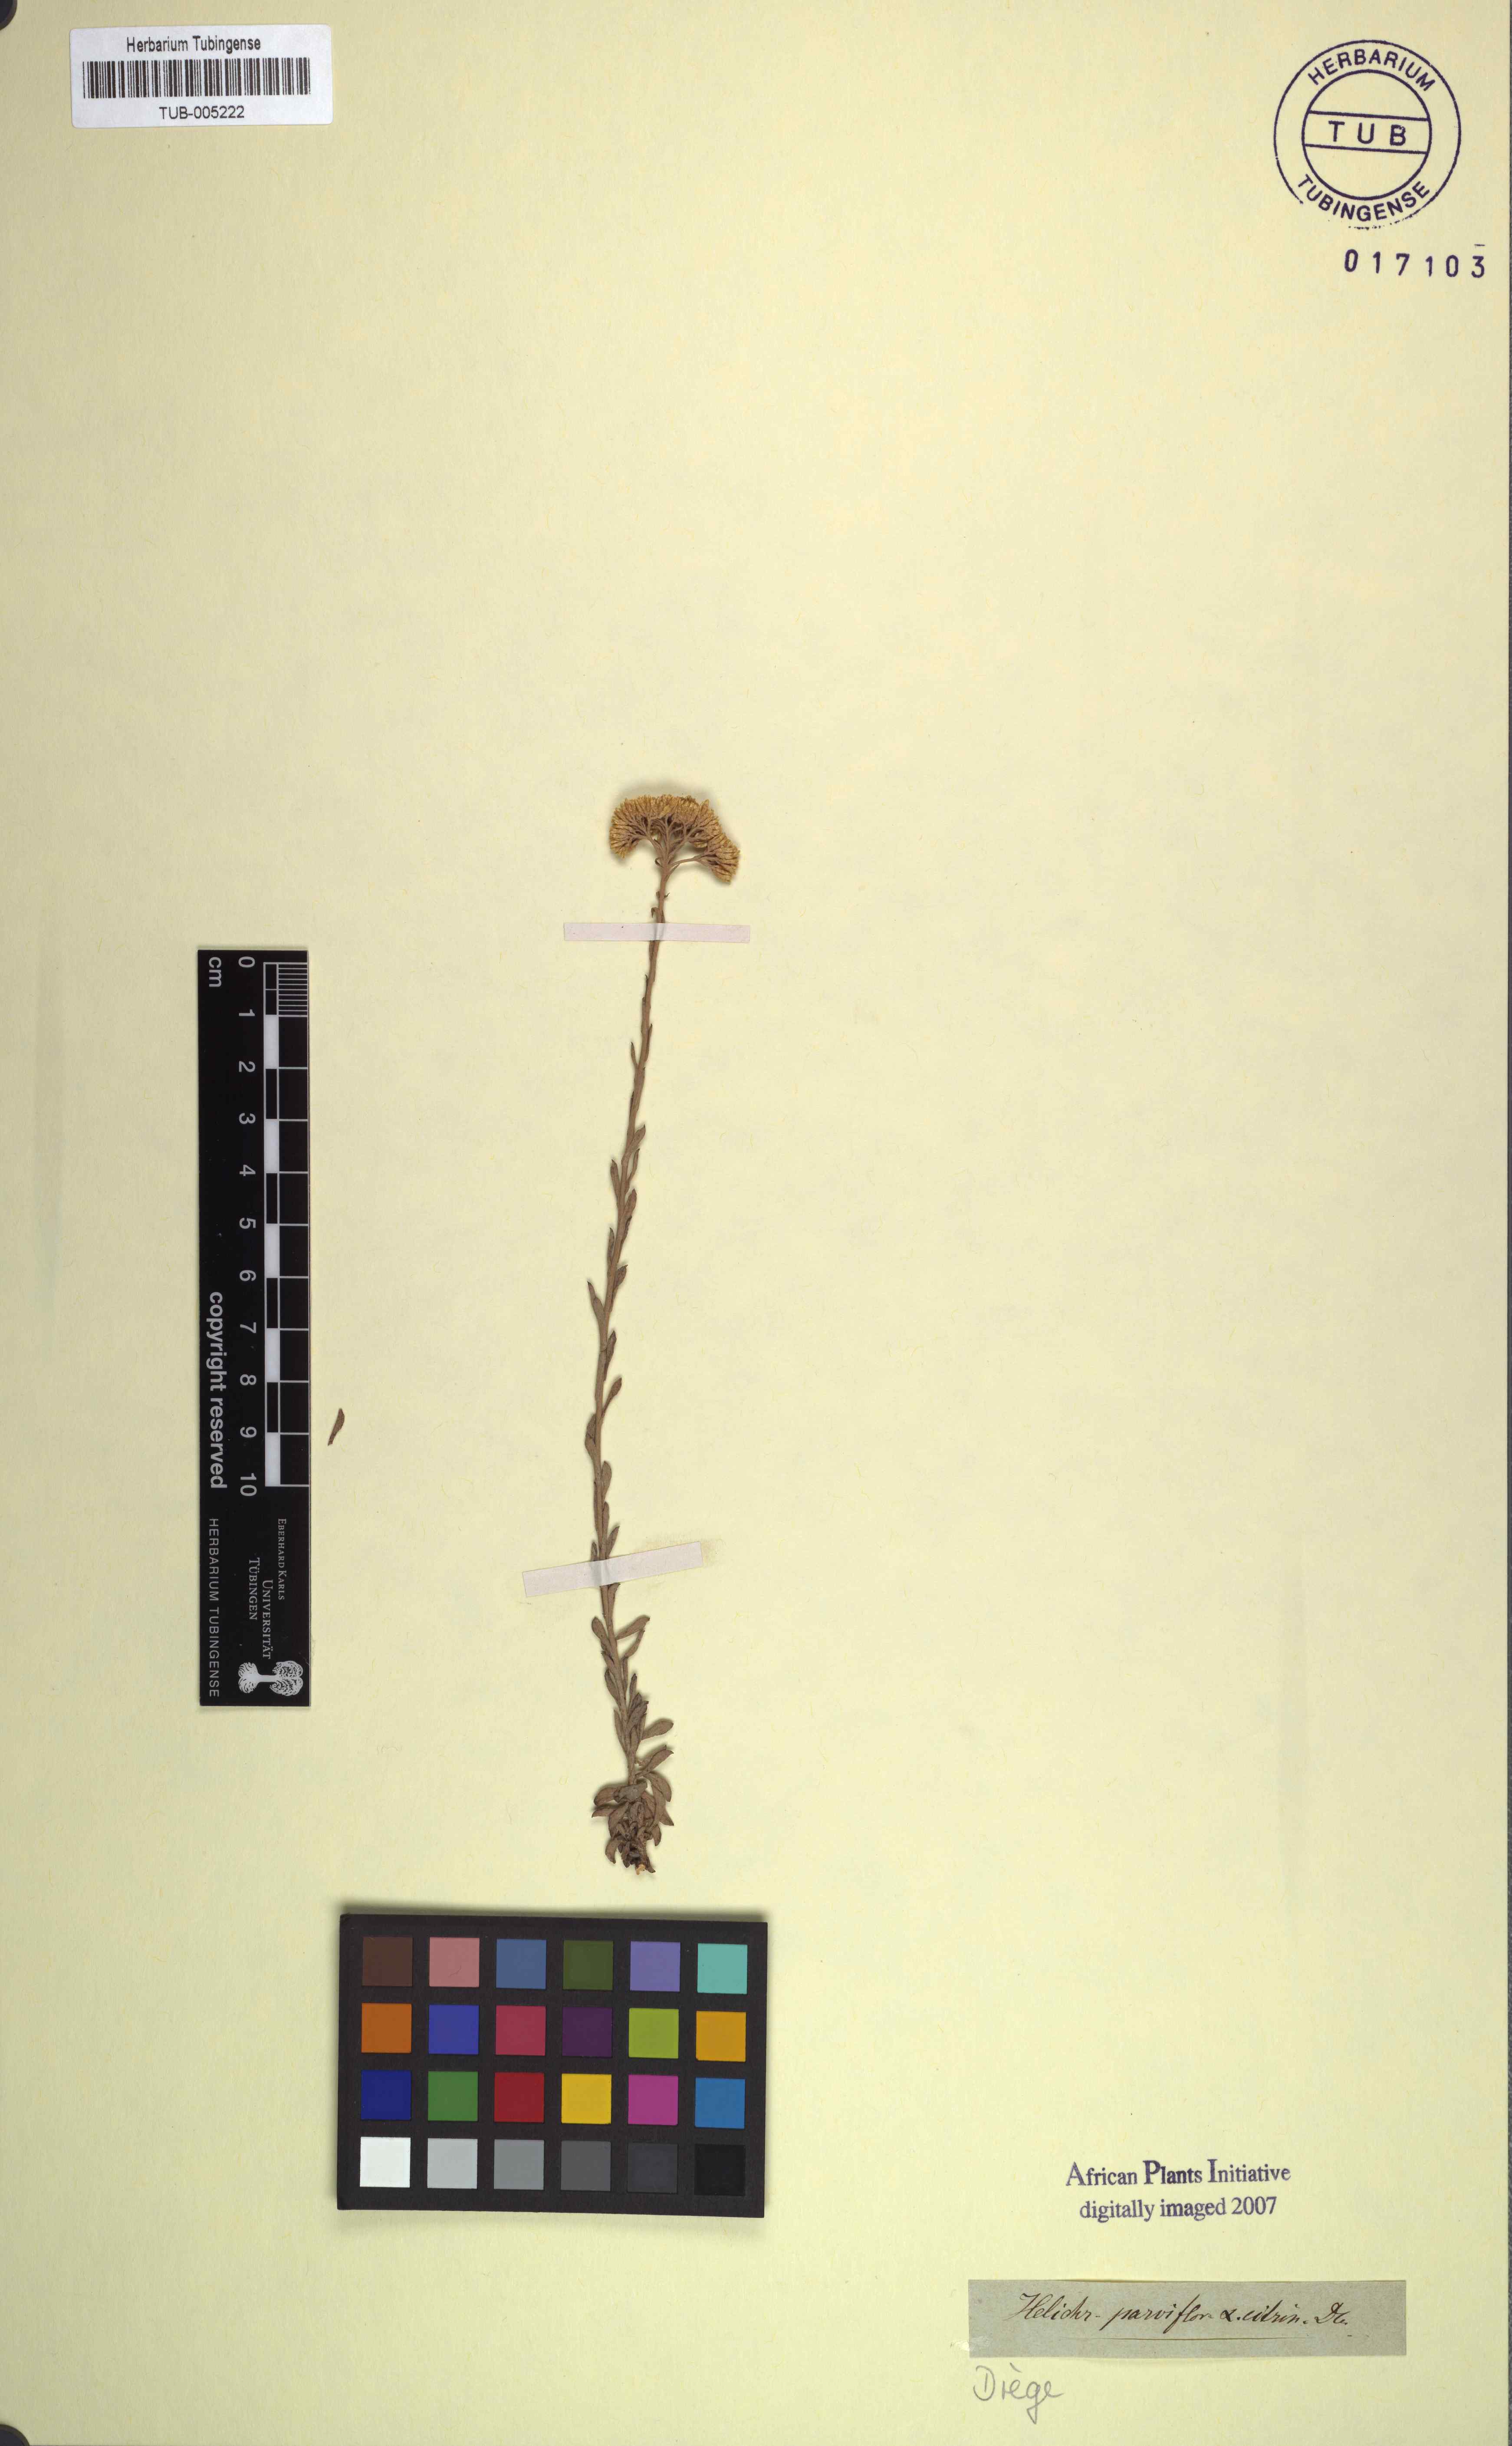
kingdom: Plantae
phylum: Tracheophyta
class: Magnoliopsida
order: Asterales
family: Asteraceae
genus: Helichrysum
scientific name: Helichrysum rutilans
